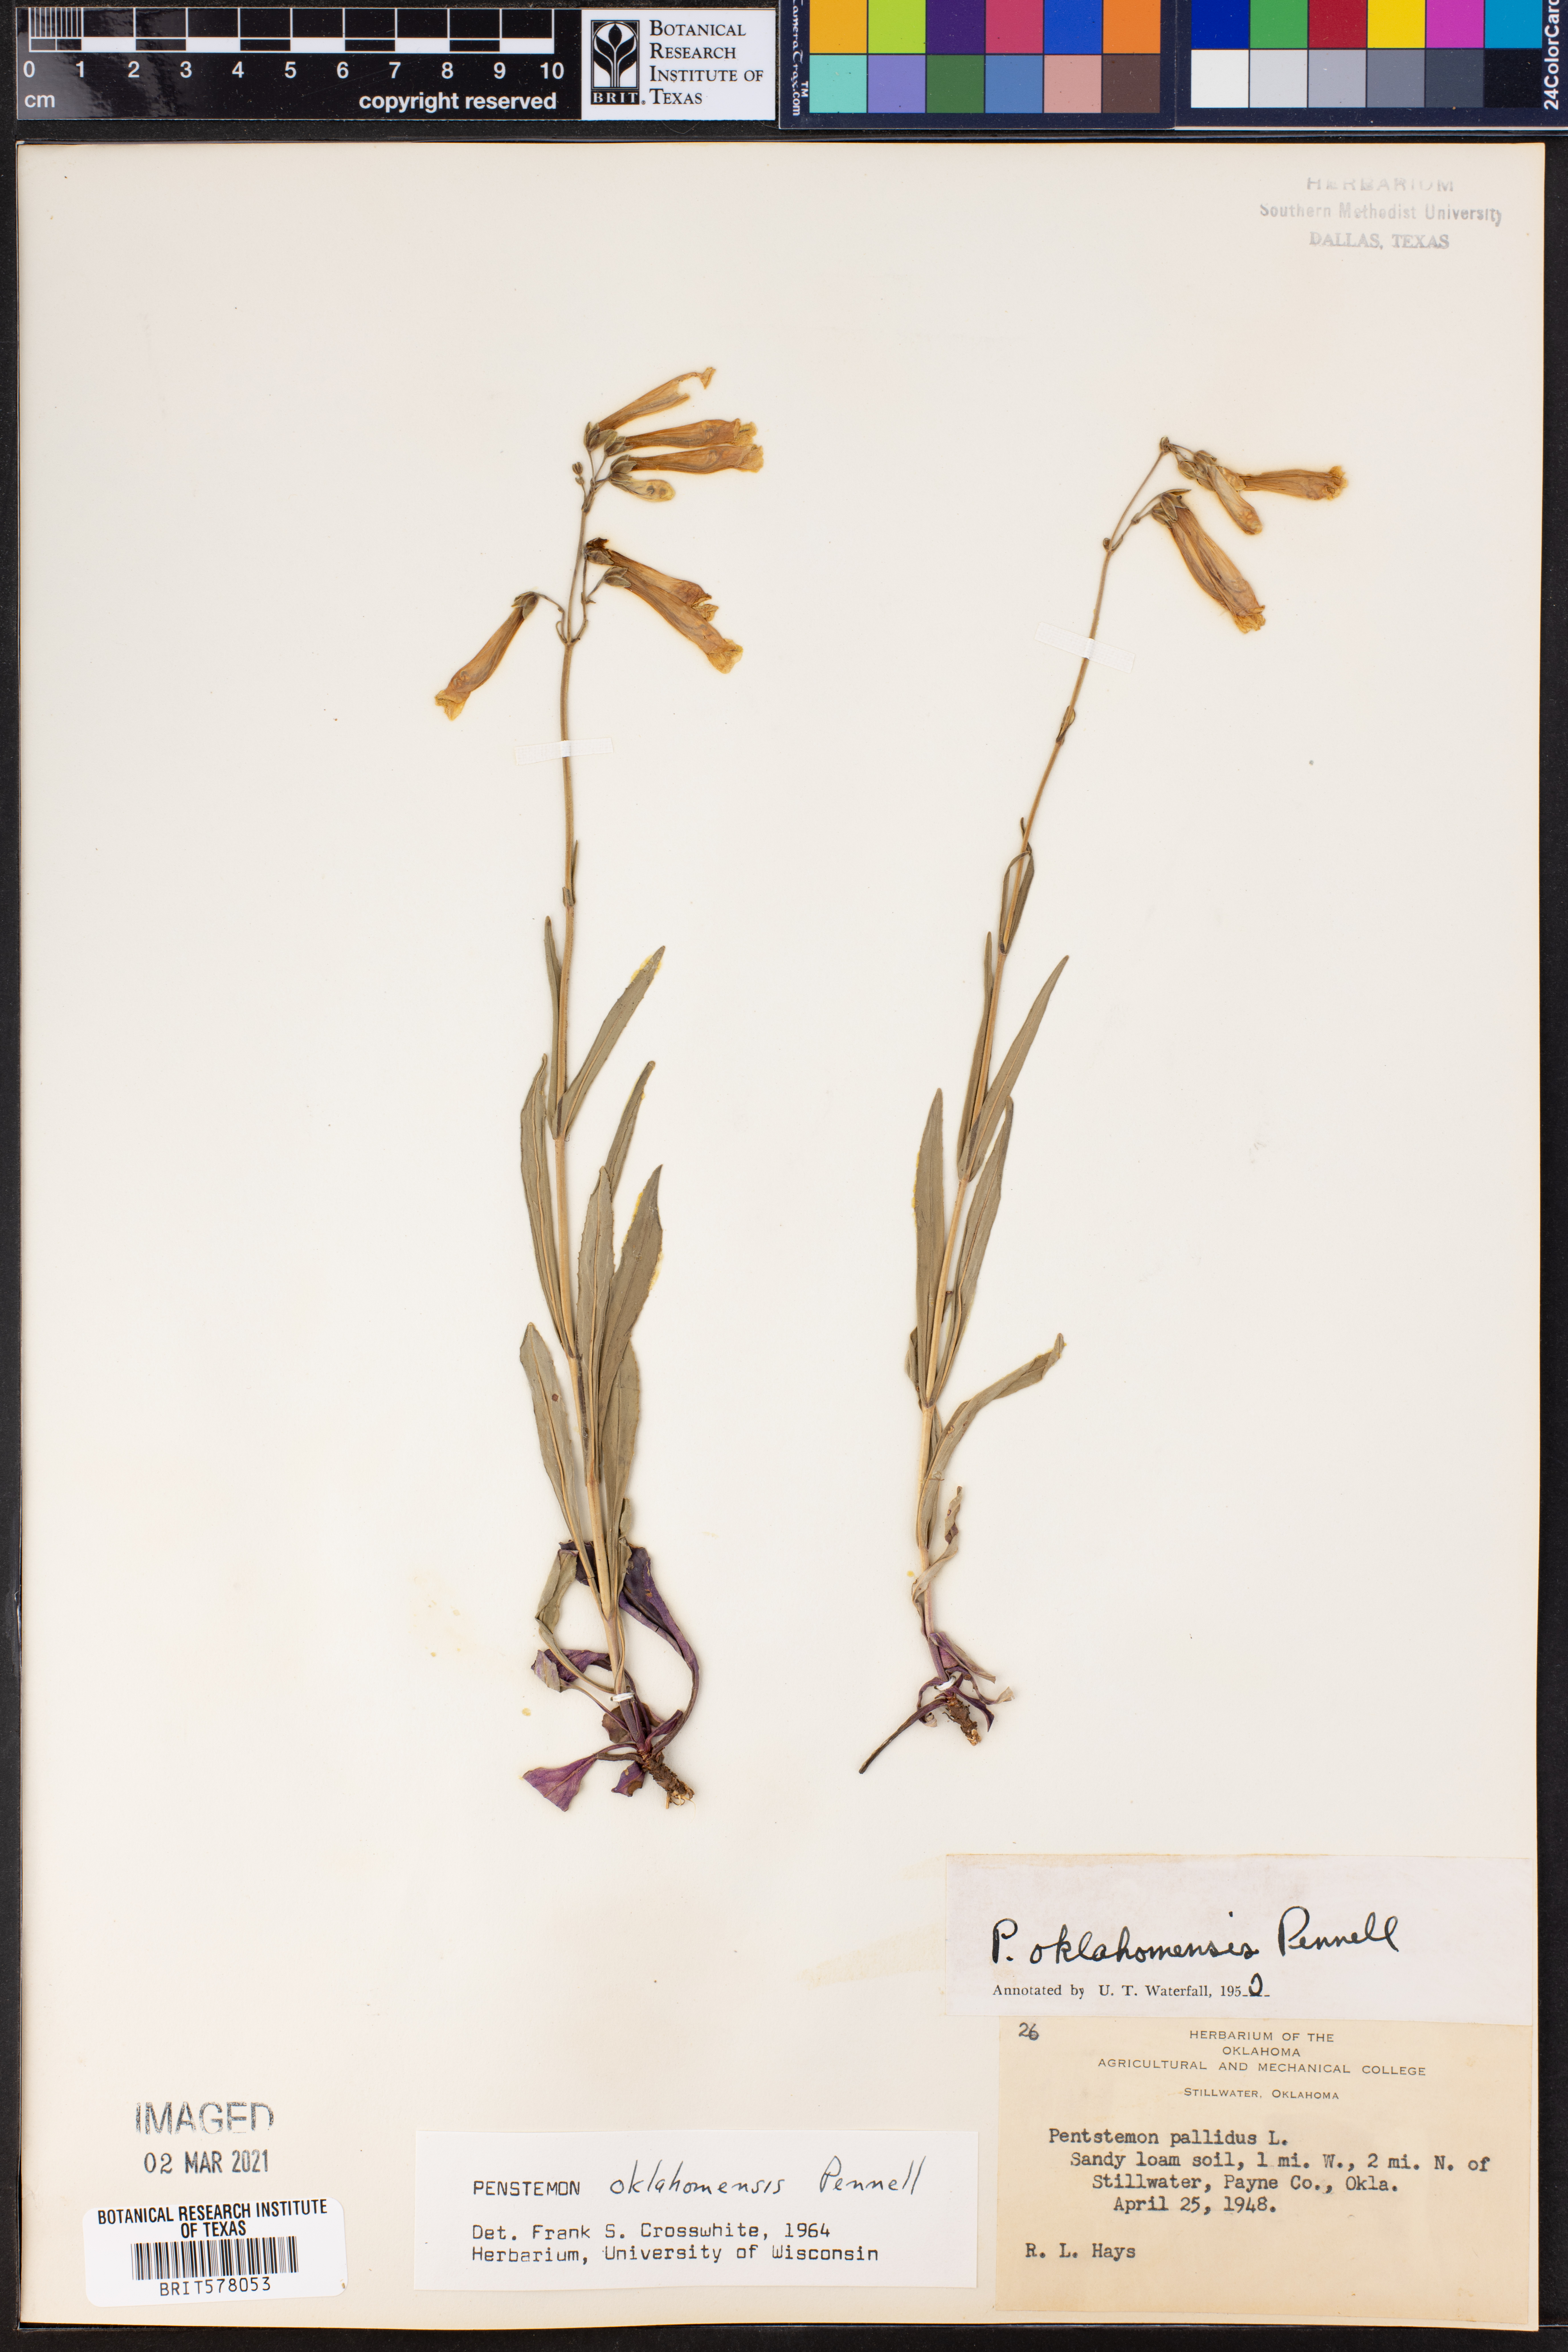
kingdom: Plantae
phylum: Tracheophyta
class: Magnoliopsida
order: Lamiales
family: Plantaginaceae
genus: Penstemon
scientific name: Penstemon oklahomensis
